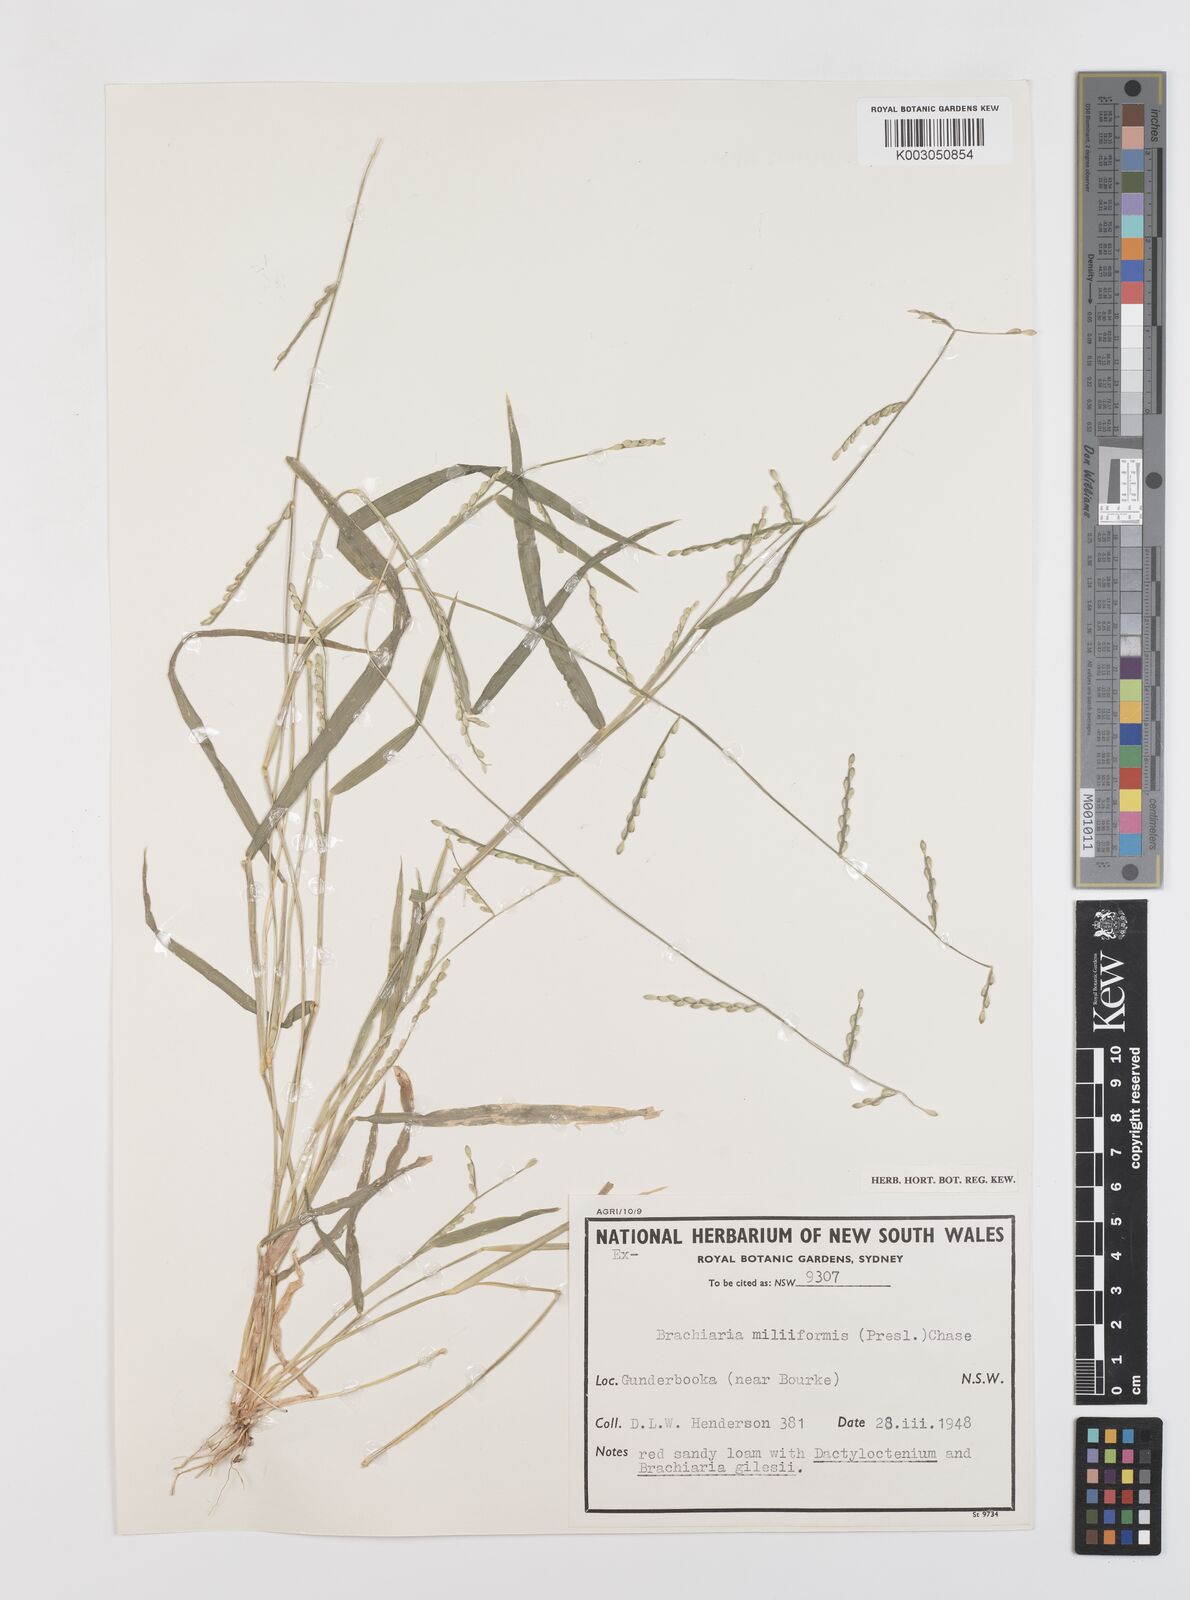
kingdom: Plantae
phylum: Tracheophyta
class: Liliopsida
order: Poales
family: Poaceae
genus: Urochloa
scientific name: Urochloa subquadripara
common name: Armgrass millet
